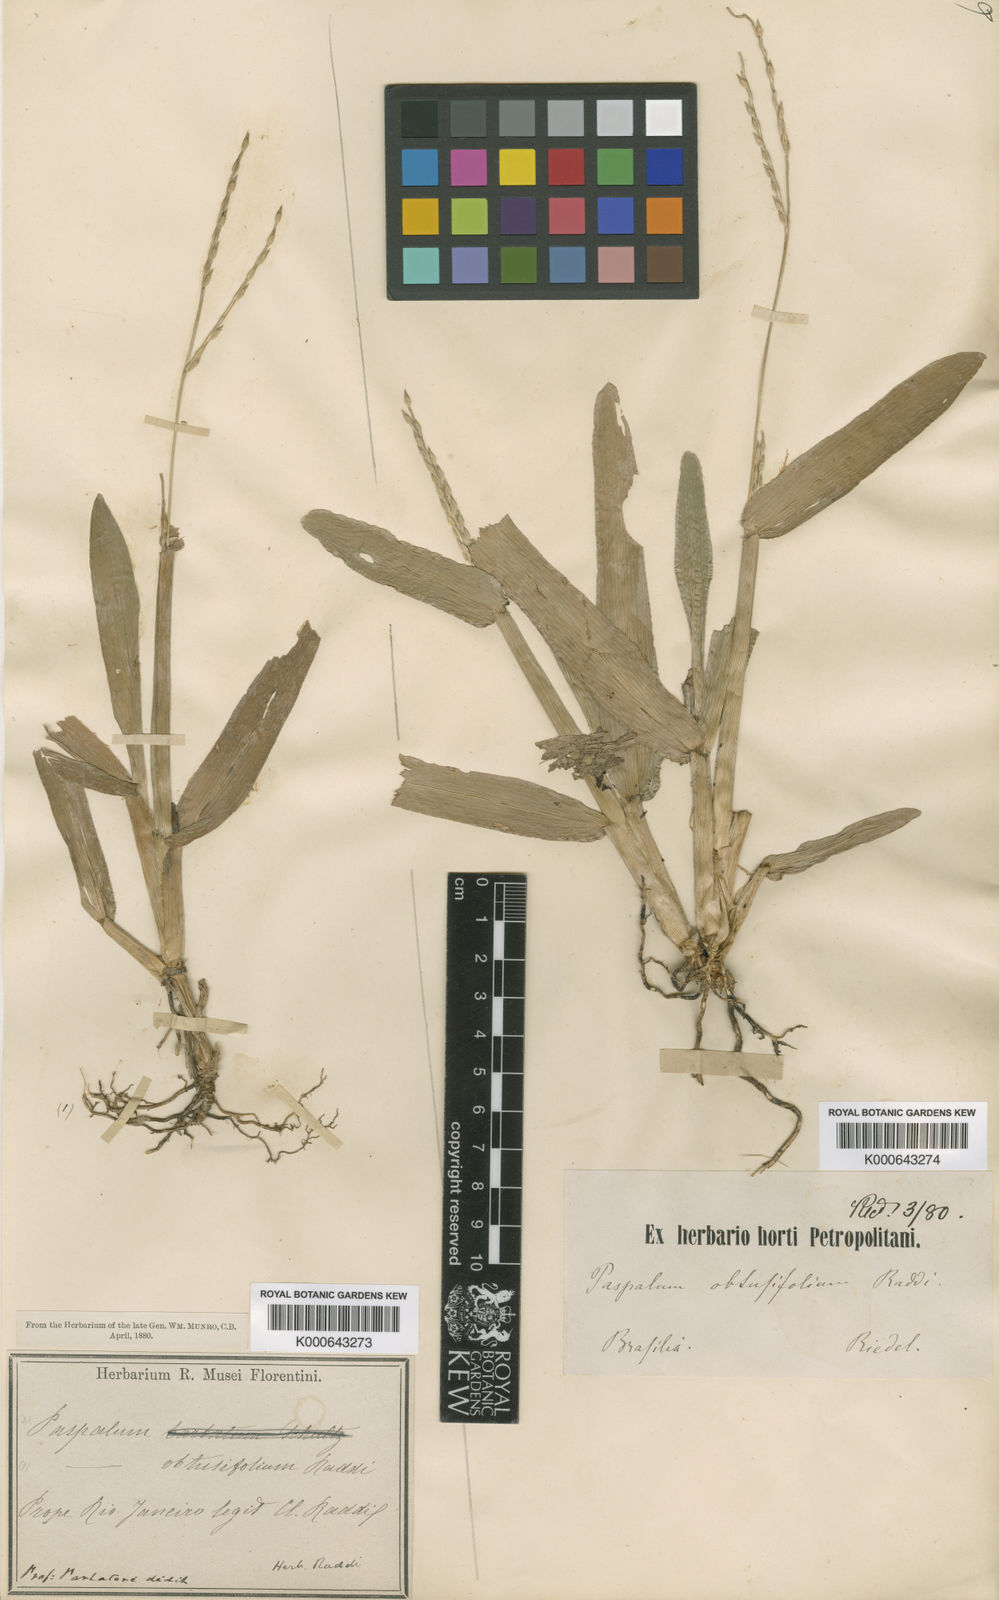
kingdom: Plantae
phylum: Tracheophyta
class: Liliopsida
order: Poales
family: Poaceae
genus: Axonopus
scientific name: Axonopus furcatus
